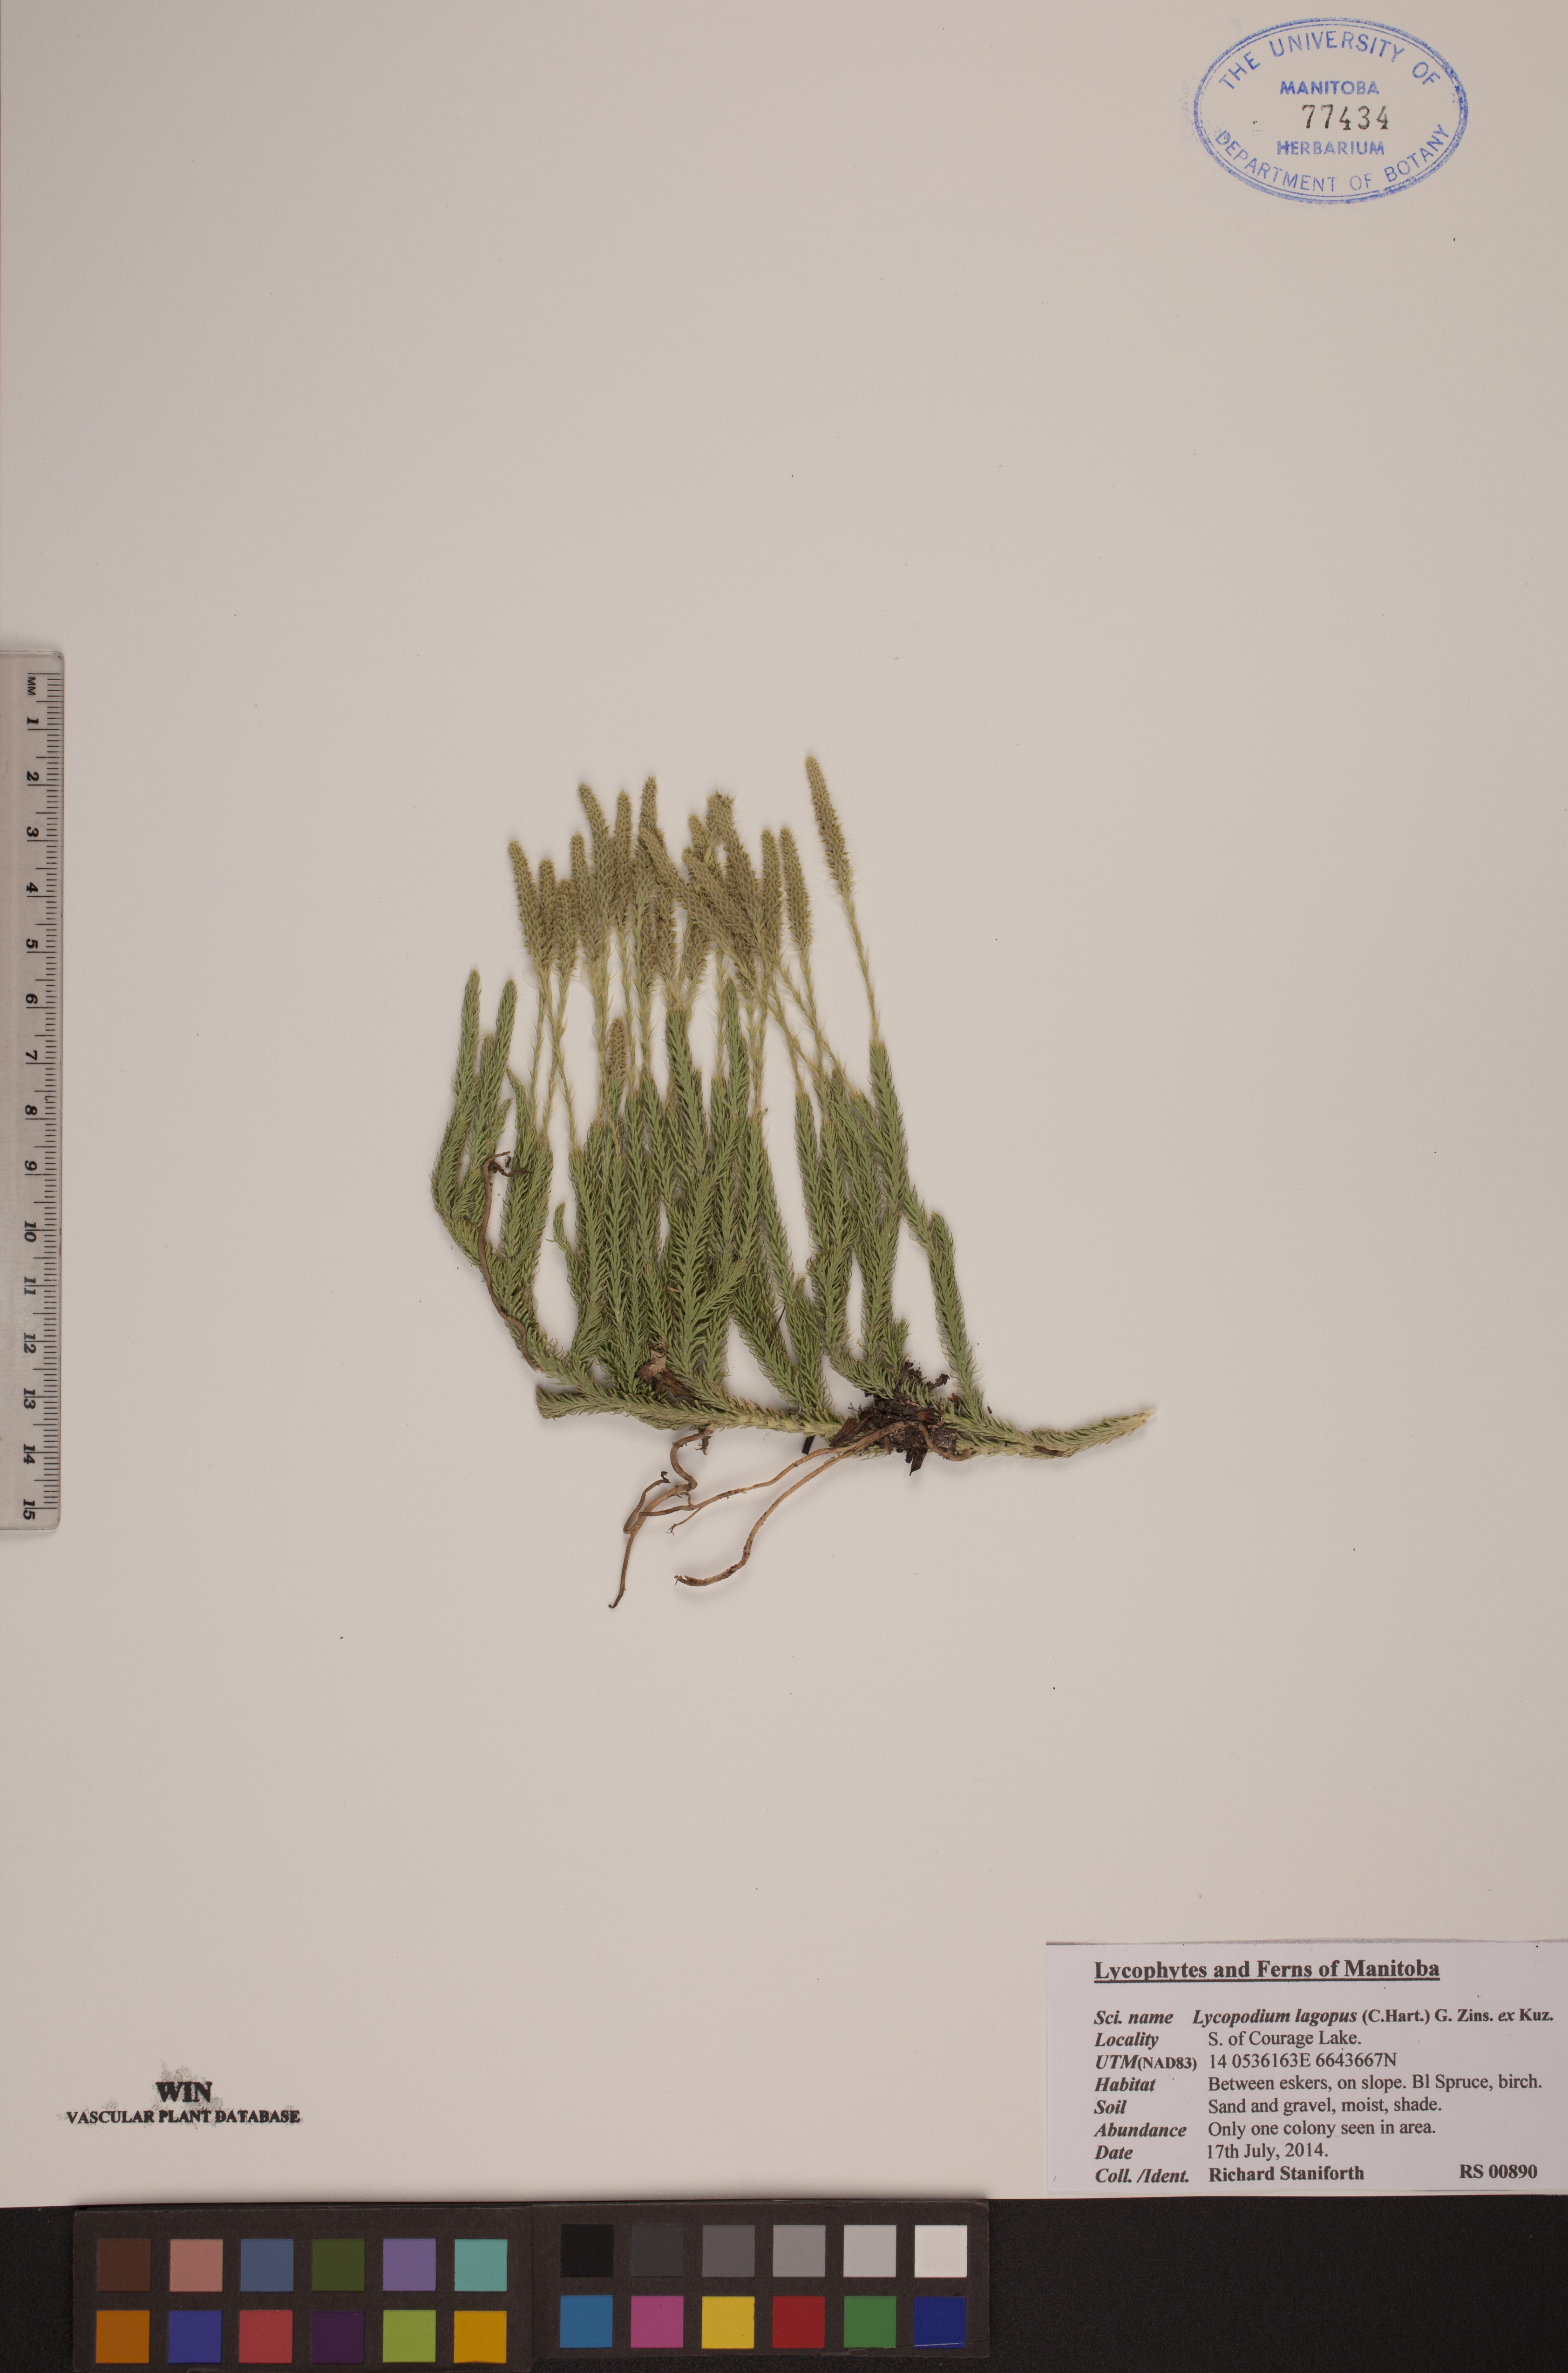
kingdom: Plantae
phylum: Tracheophyta
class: Lycopodiopsida
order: Lycopodiales
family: Lycopodiaceae
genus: Lycopodium
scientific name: Lycopodium lagopus
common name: One-cone clubmoss
